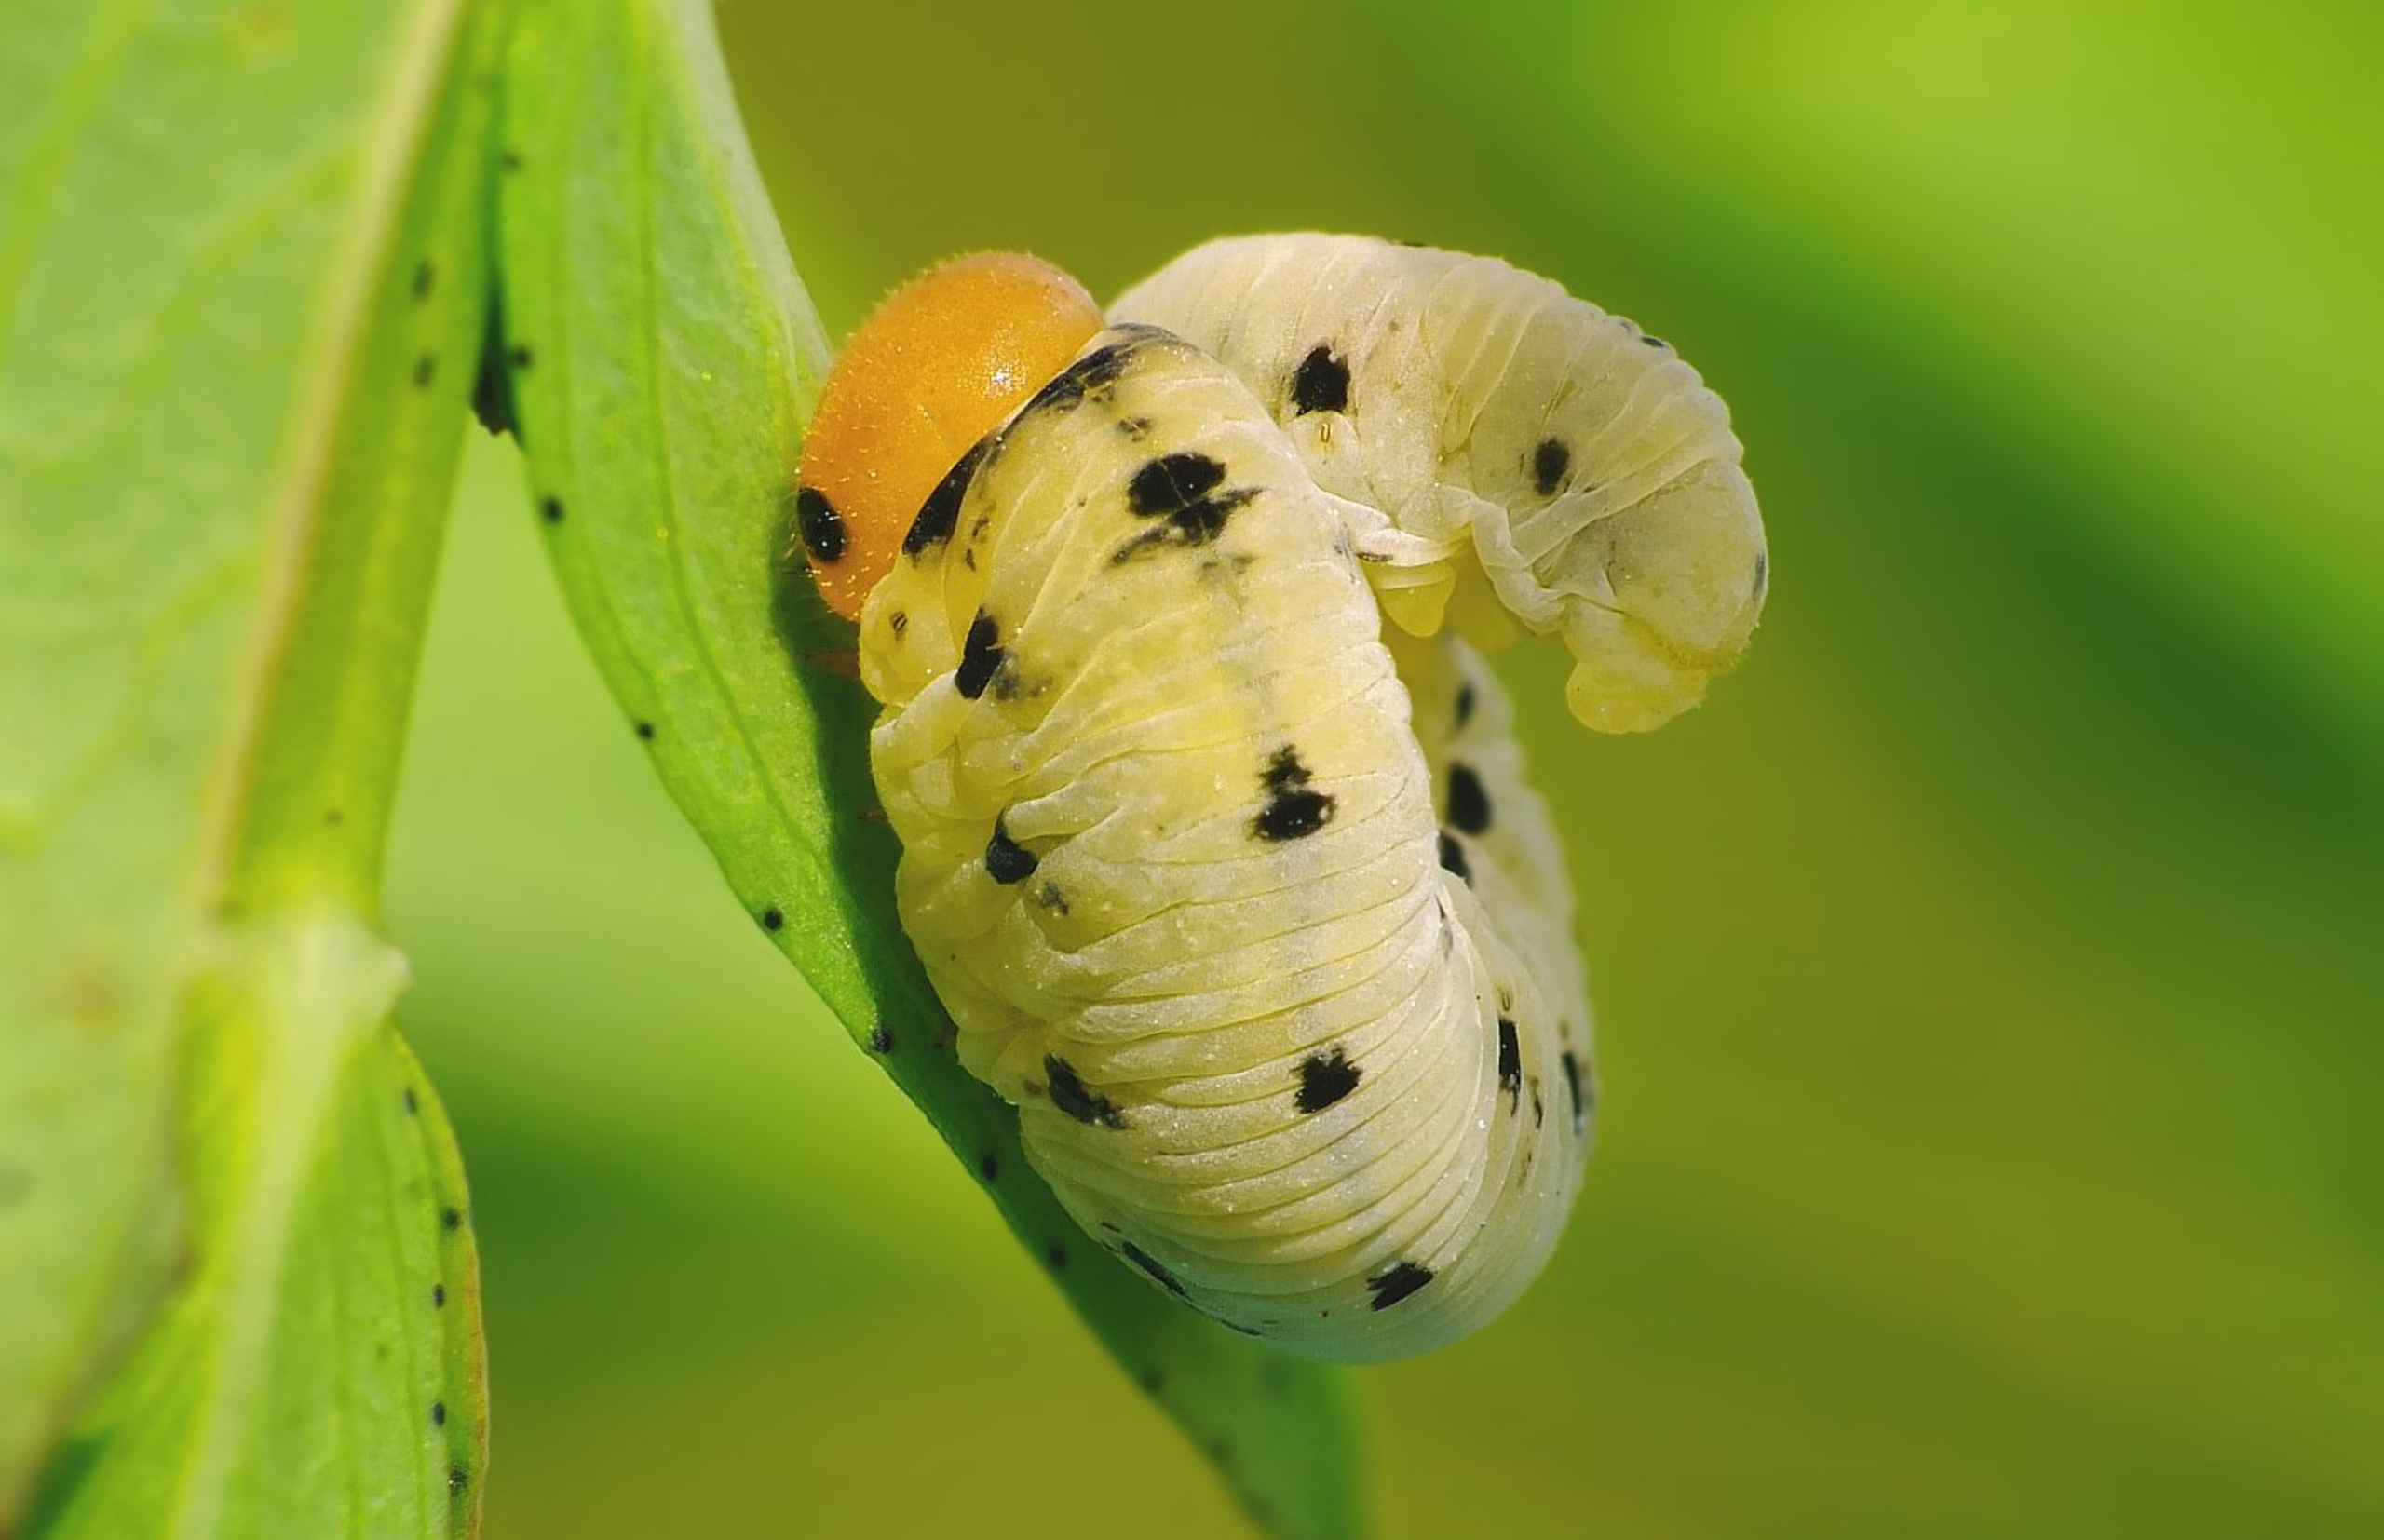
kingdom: Animalia
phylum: Arthropoda
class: Insecta
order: Hymenoptera
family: Tenthredinidae
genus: Tenthredo
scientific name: Tenthredo zona
